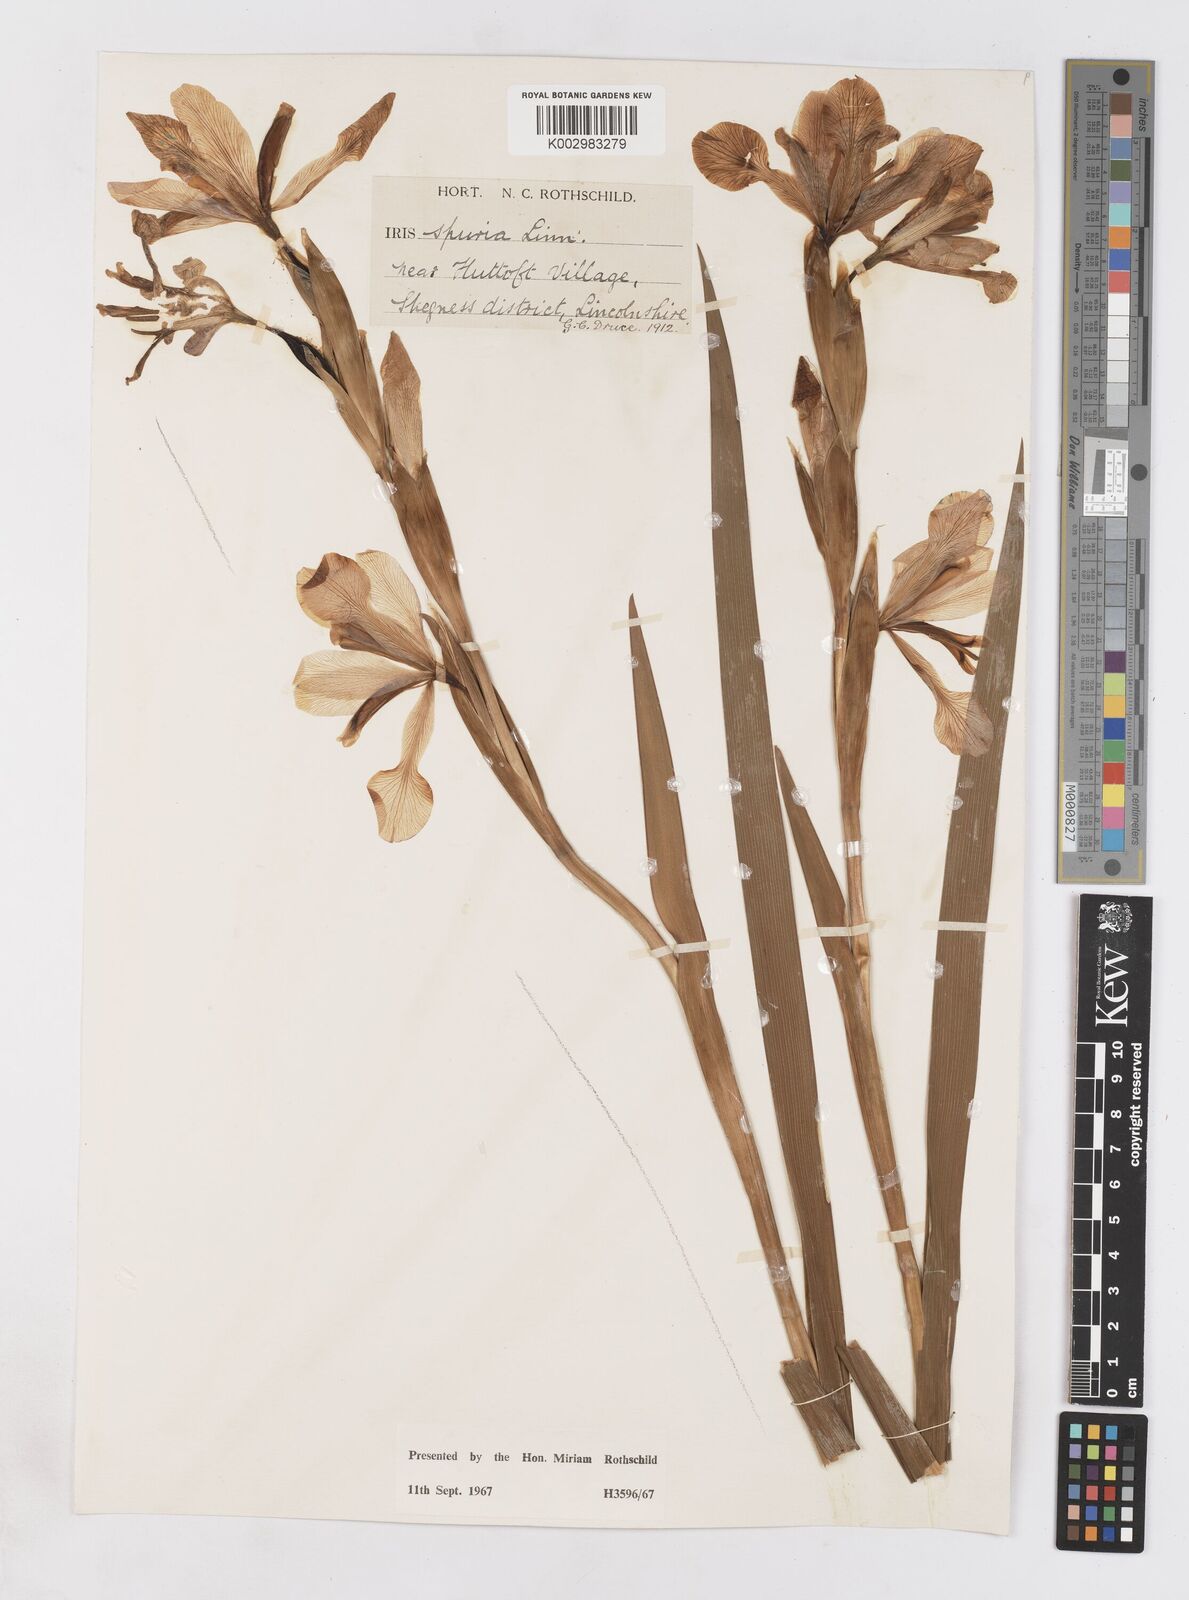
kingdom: Plantae
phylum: Tracheophyta
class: Liliopsida
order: Asparagales
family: Iridaceae
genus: Iris
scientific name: Iris spuria
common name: Blue iris
